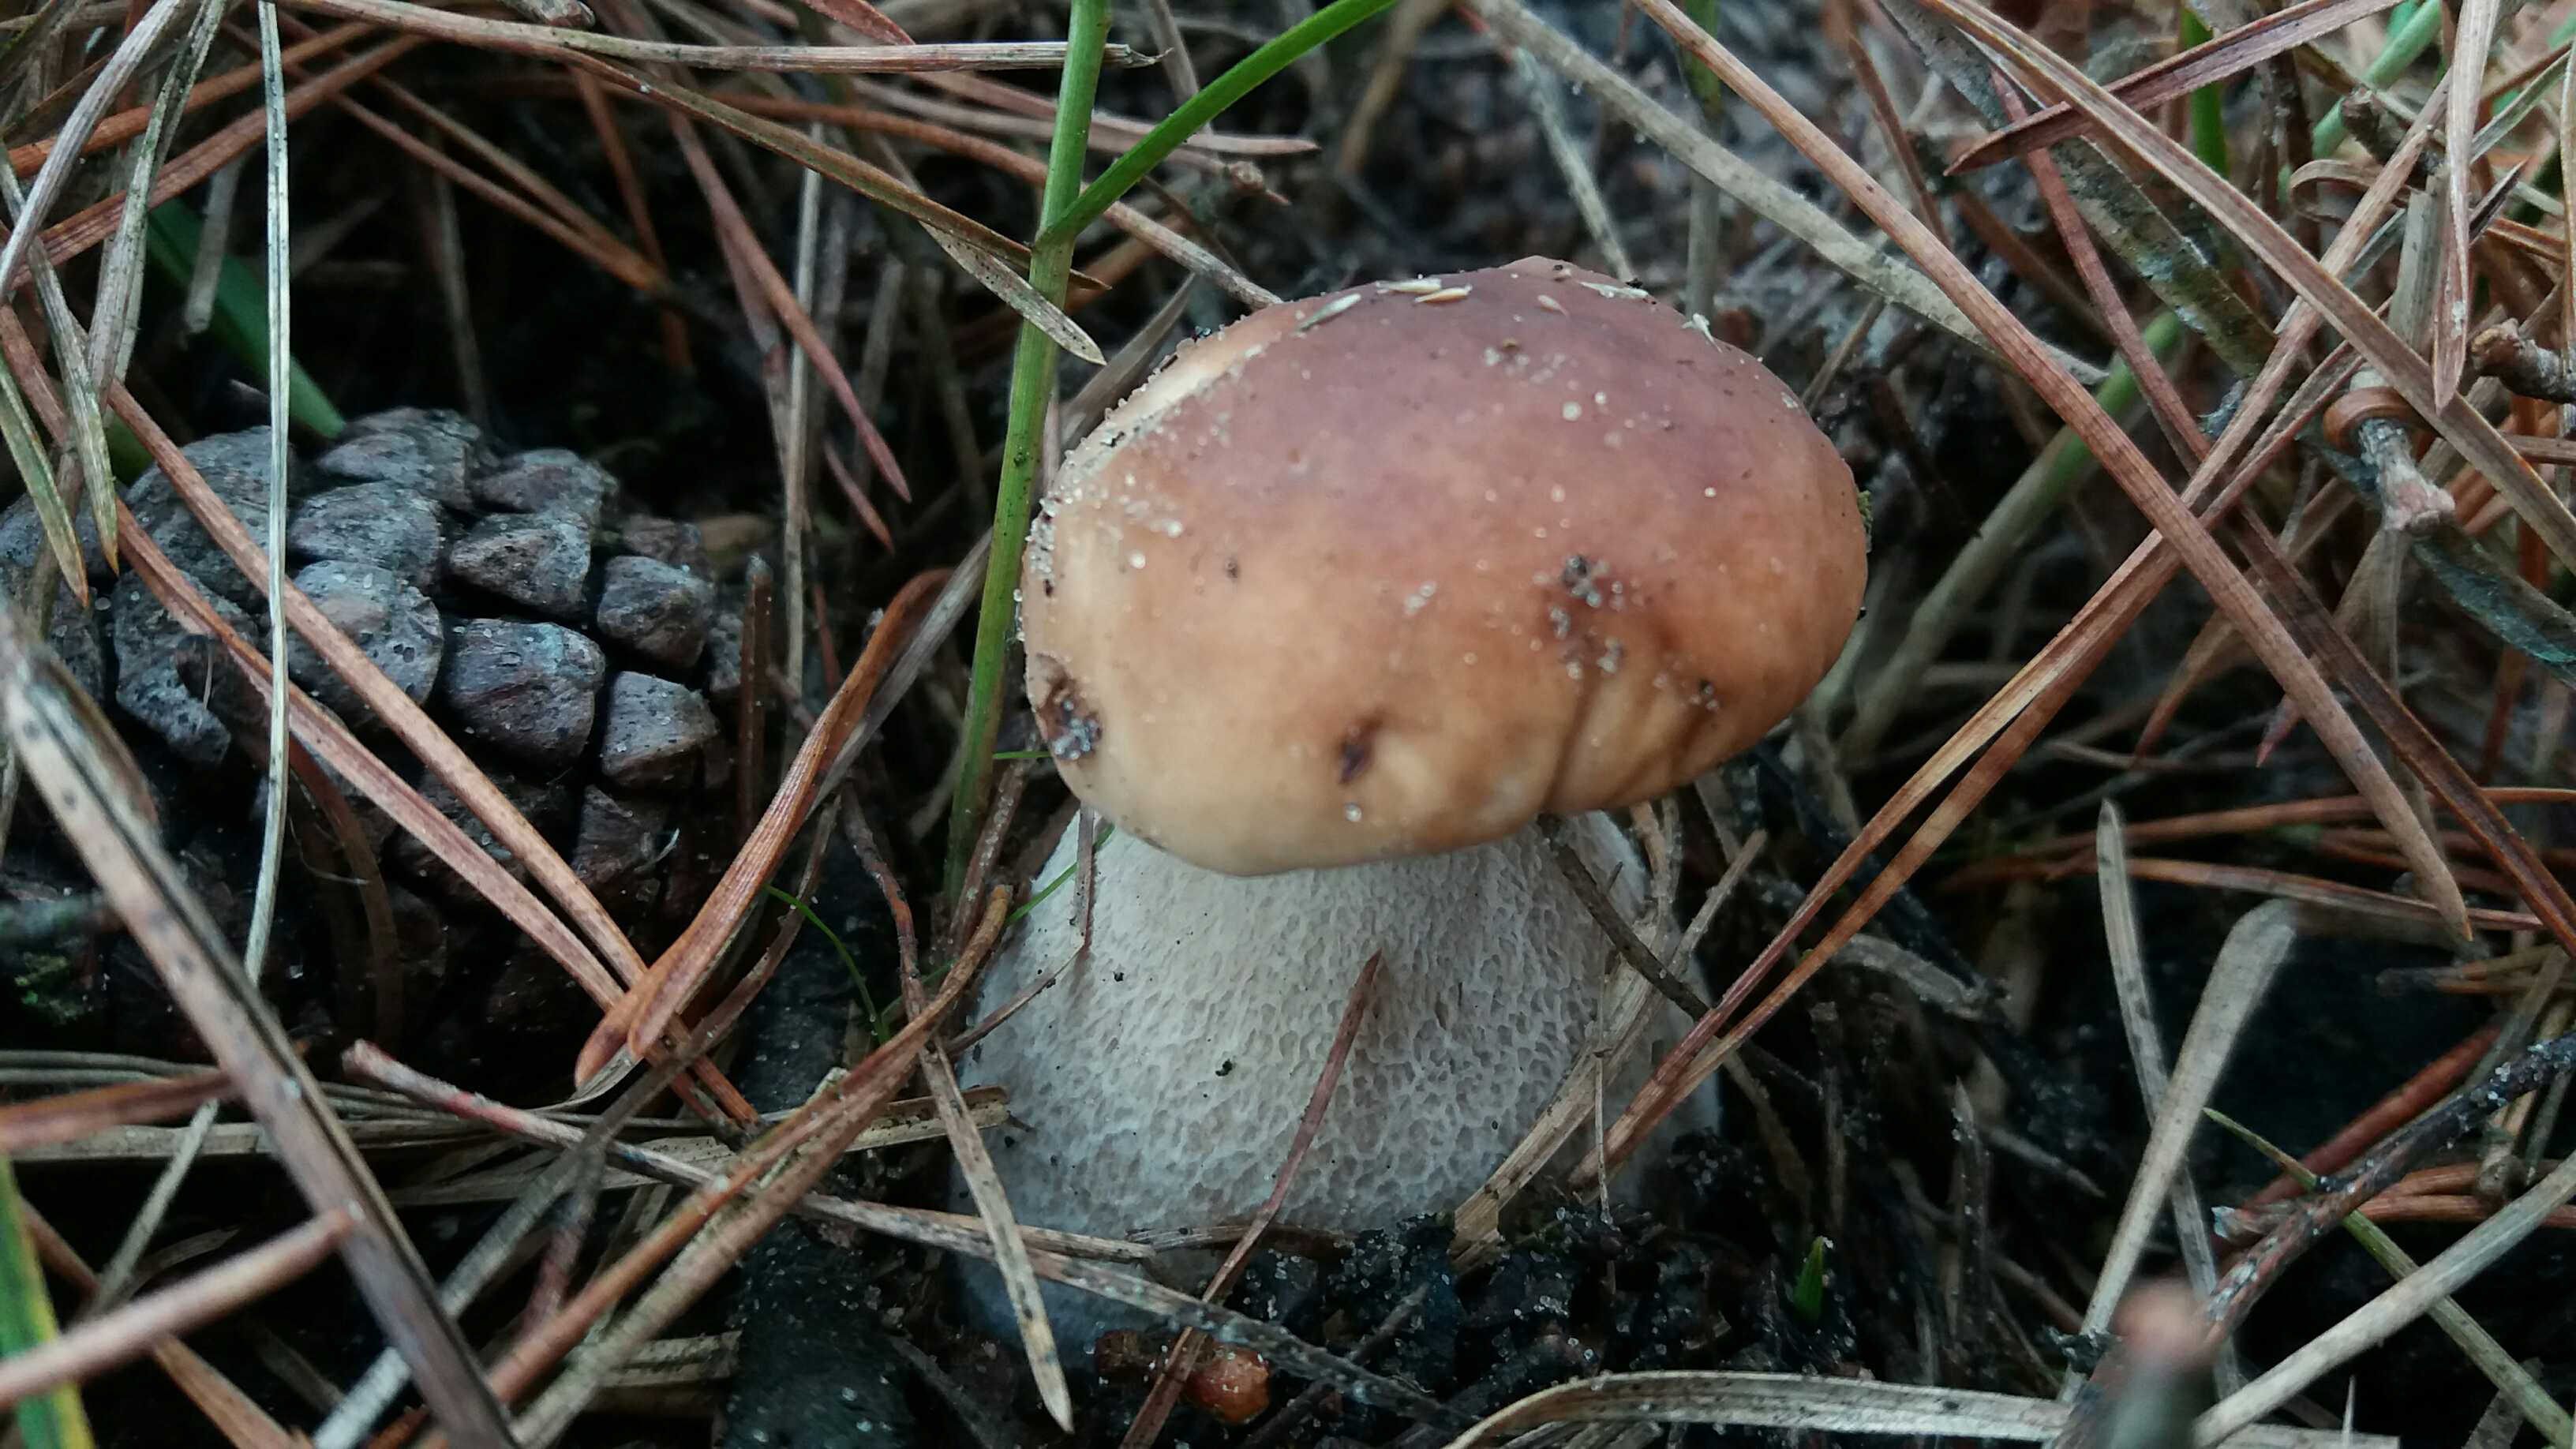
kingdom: Fungi
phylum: Basidiomycota
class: Agaricomycetes
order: Boletales
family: Boletaceae
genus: Boletus
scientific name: Boletus edulis
